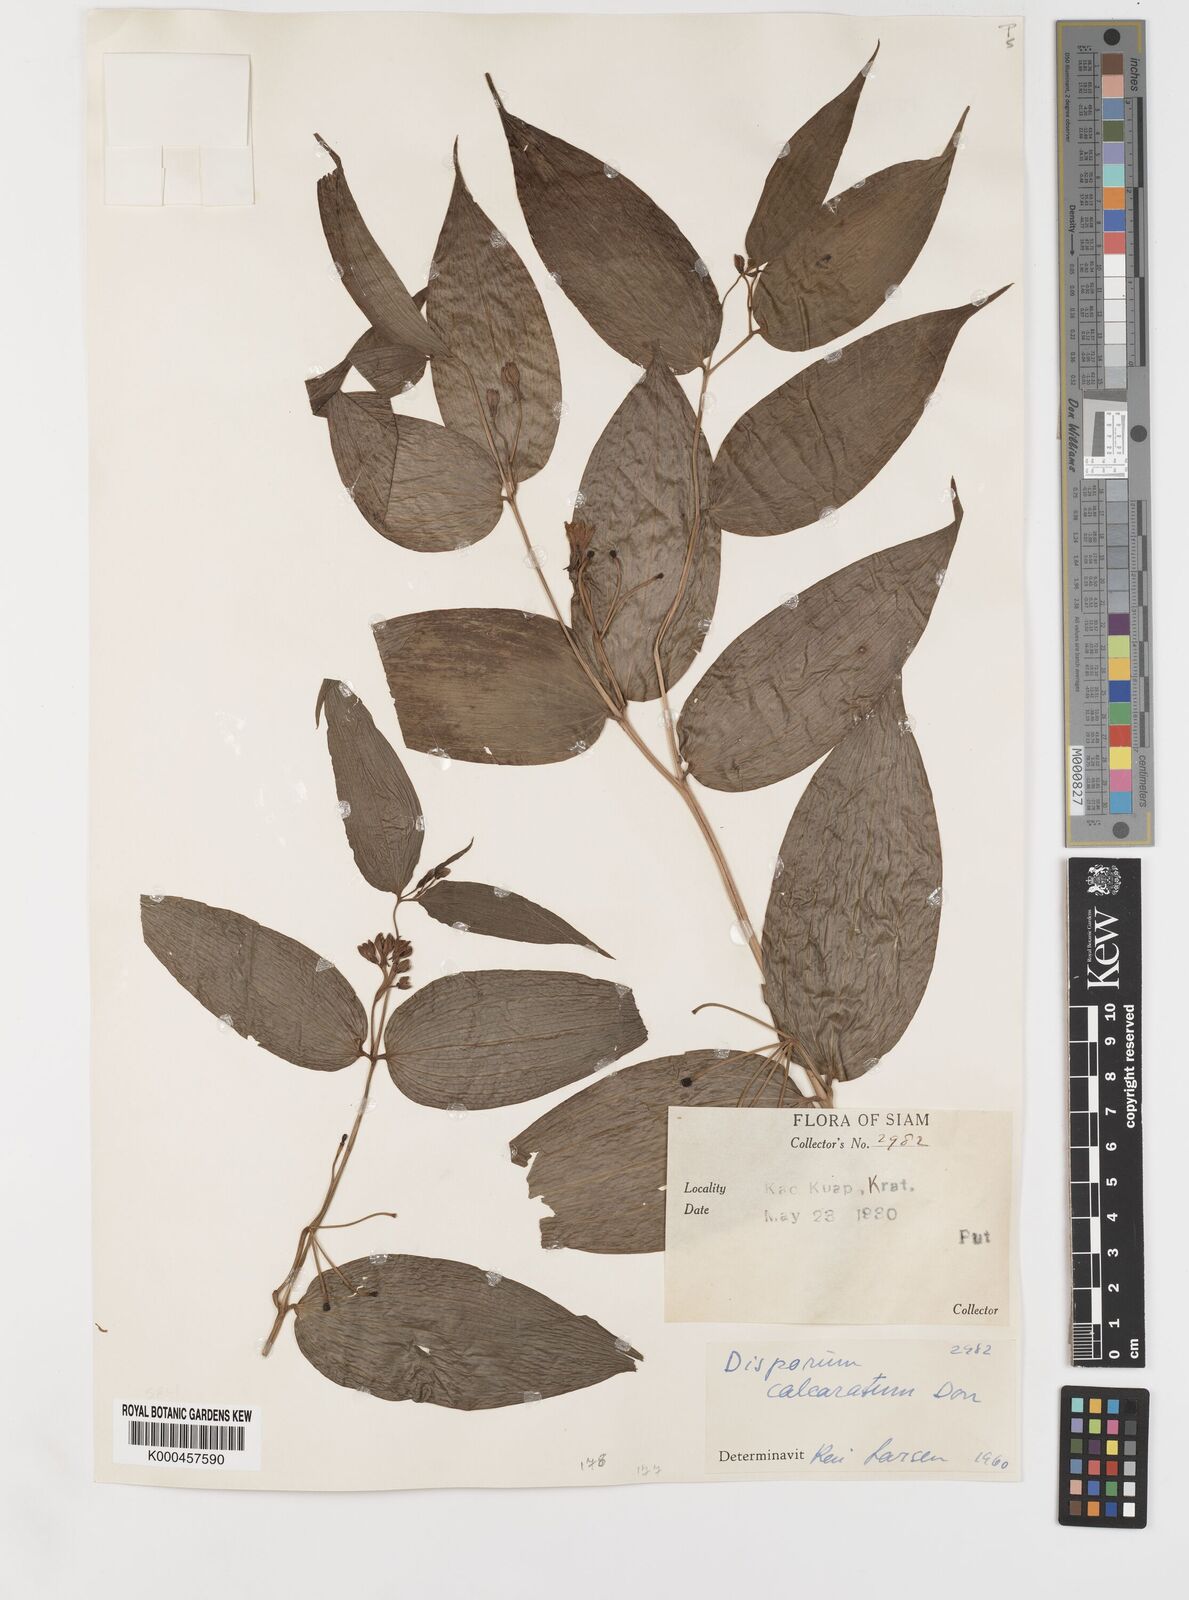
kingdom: Plantae
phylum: Tracheophyta
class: Liliopsida
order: Liliales
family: Colchicaceae
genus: Disporum
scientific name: Disporum calcaratum
